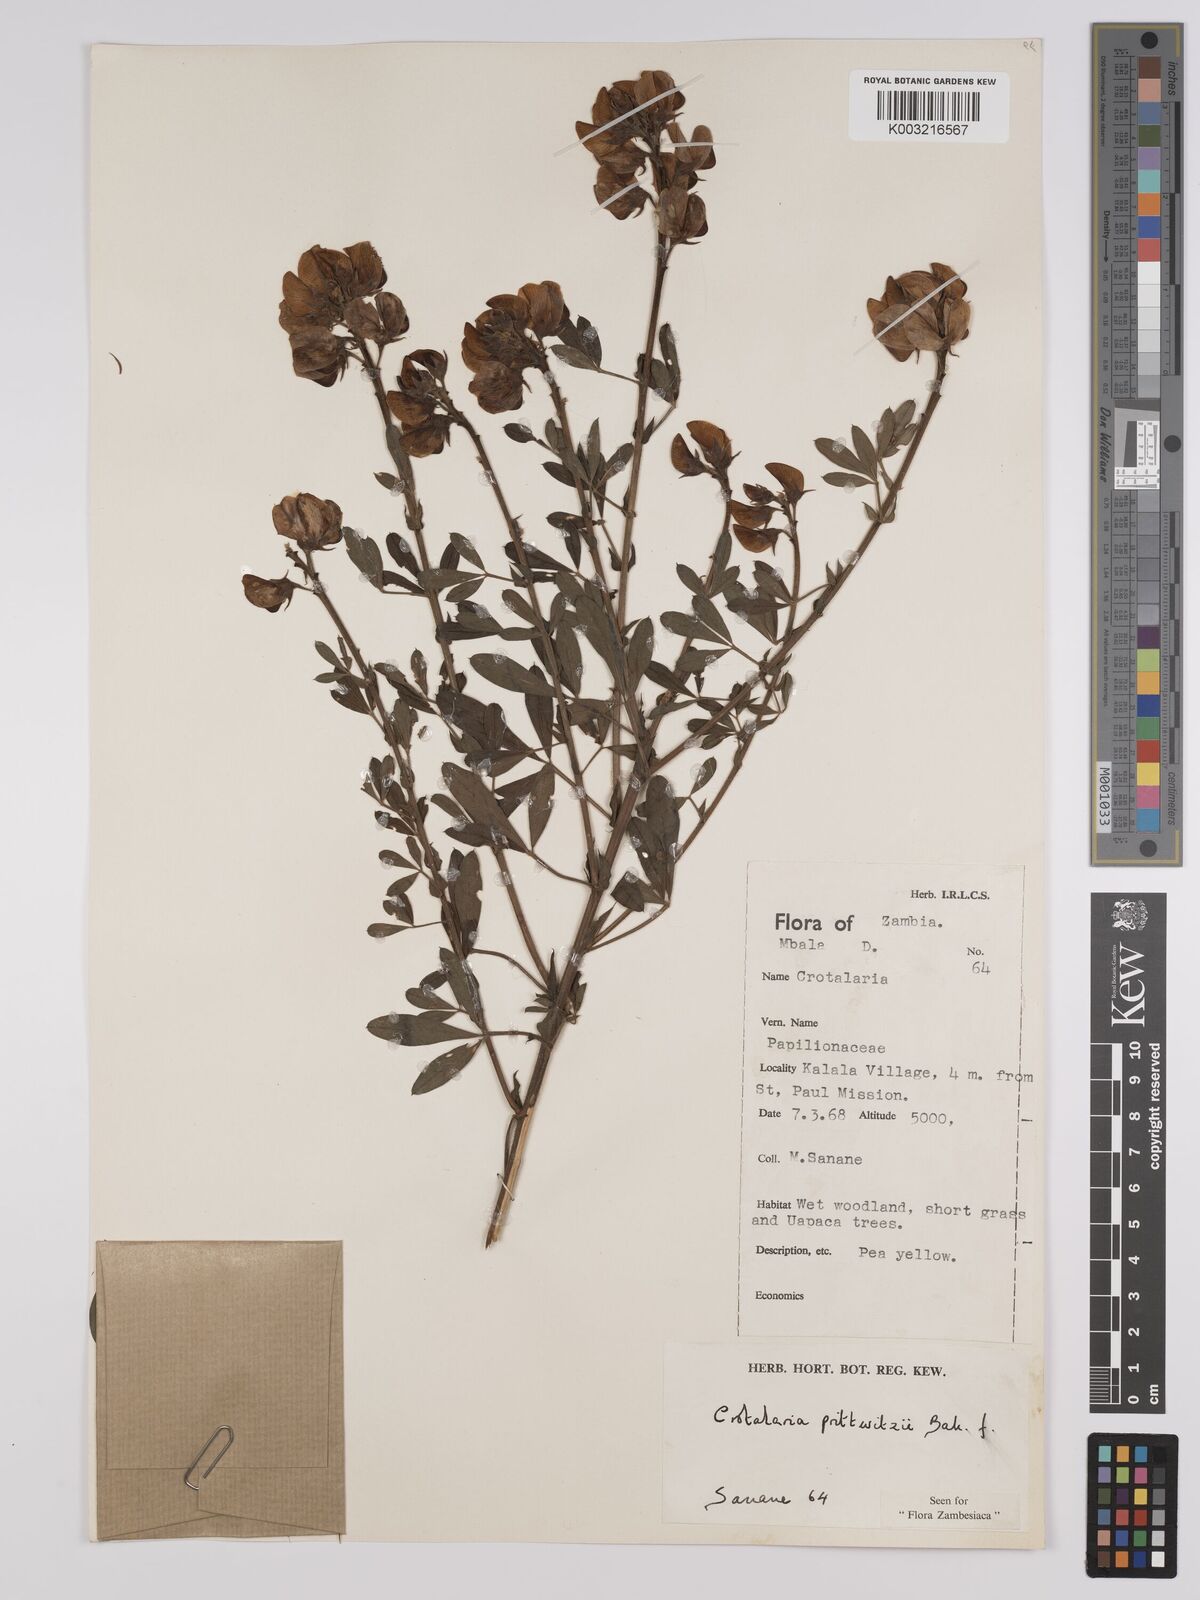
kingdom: Plantae
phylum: Tracheophyta
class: Magnoliopsida
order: Fabales
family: Fabaceae
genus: Crotalaria
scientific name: Crotalaria prittwitzii
